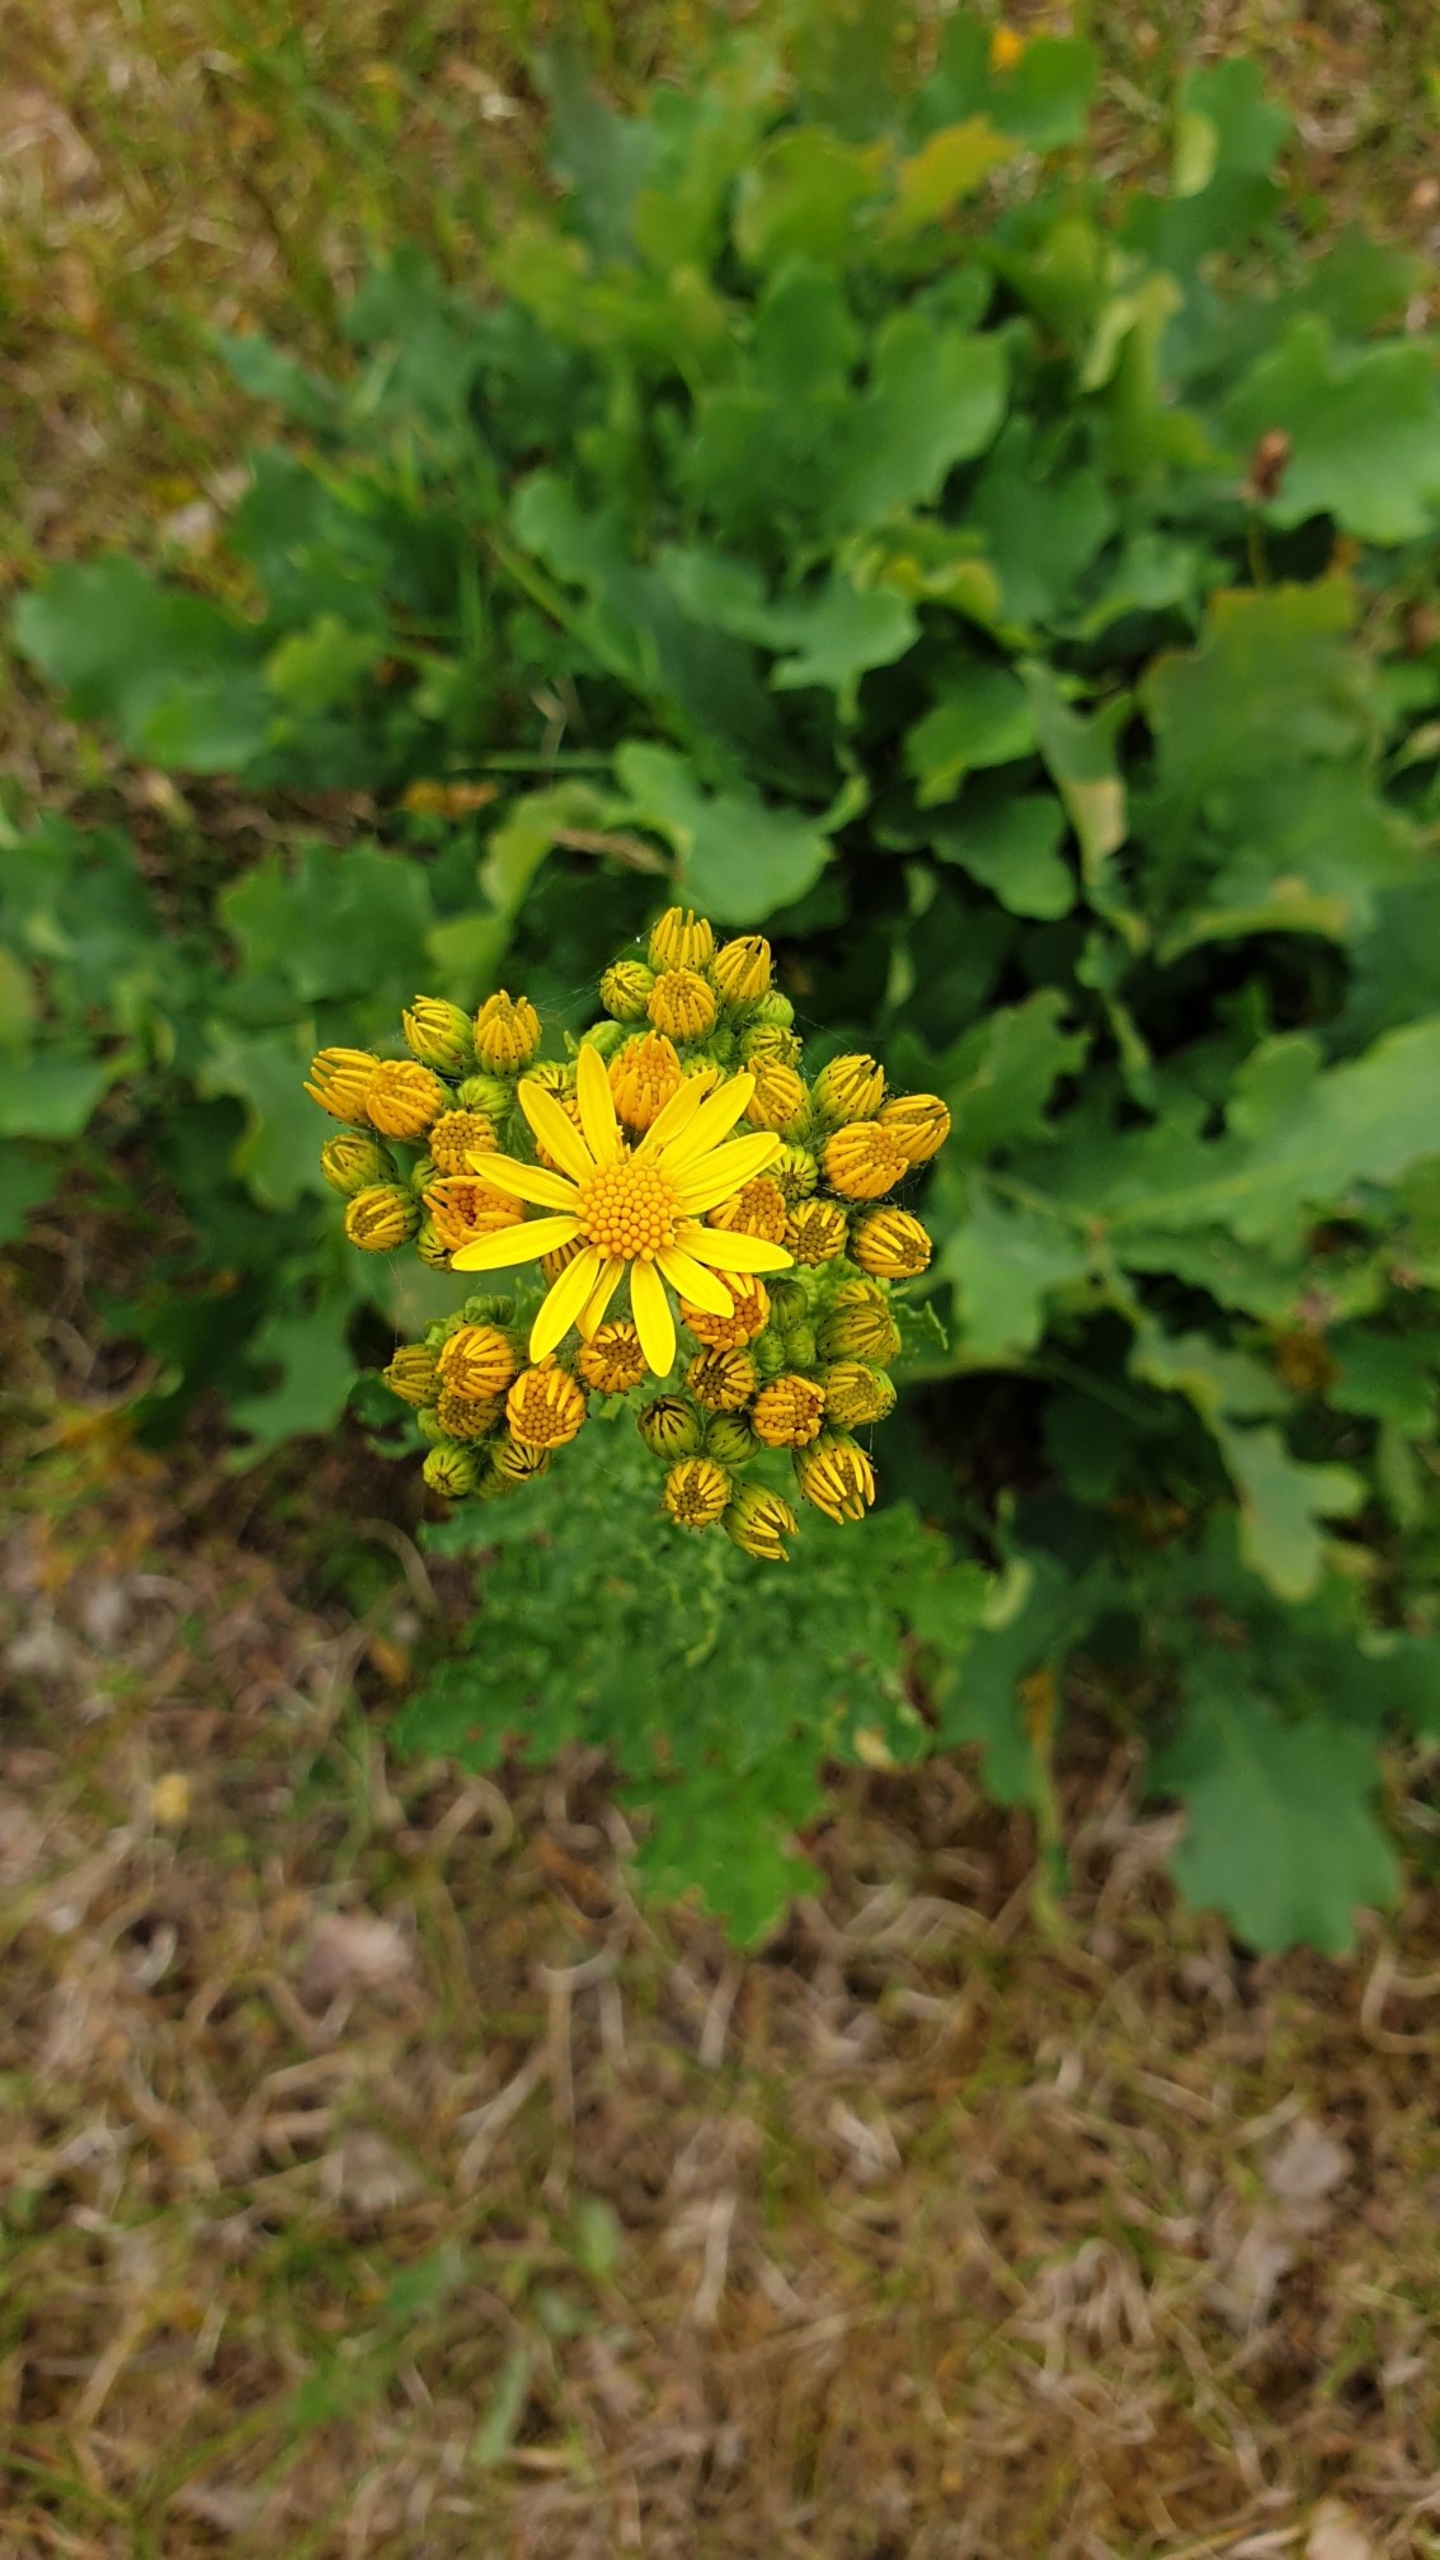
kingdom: Plantae
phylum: Tracheophyta
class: Magnoliopsida
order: Asterales
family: Asteraceae
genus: Jacobaea
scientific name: Jacobaea vulgaris
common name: Eng-brandbæger
